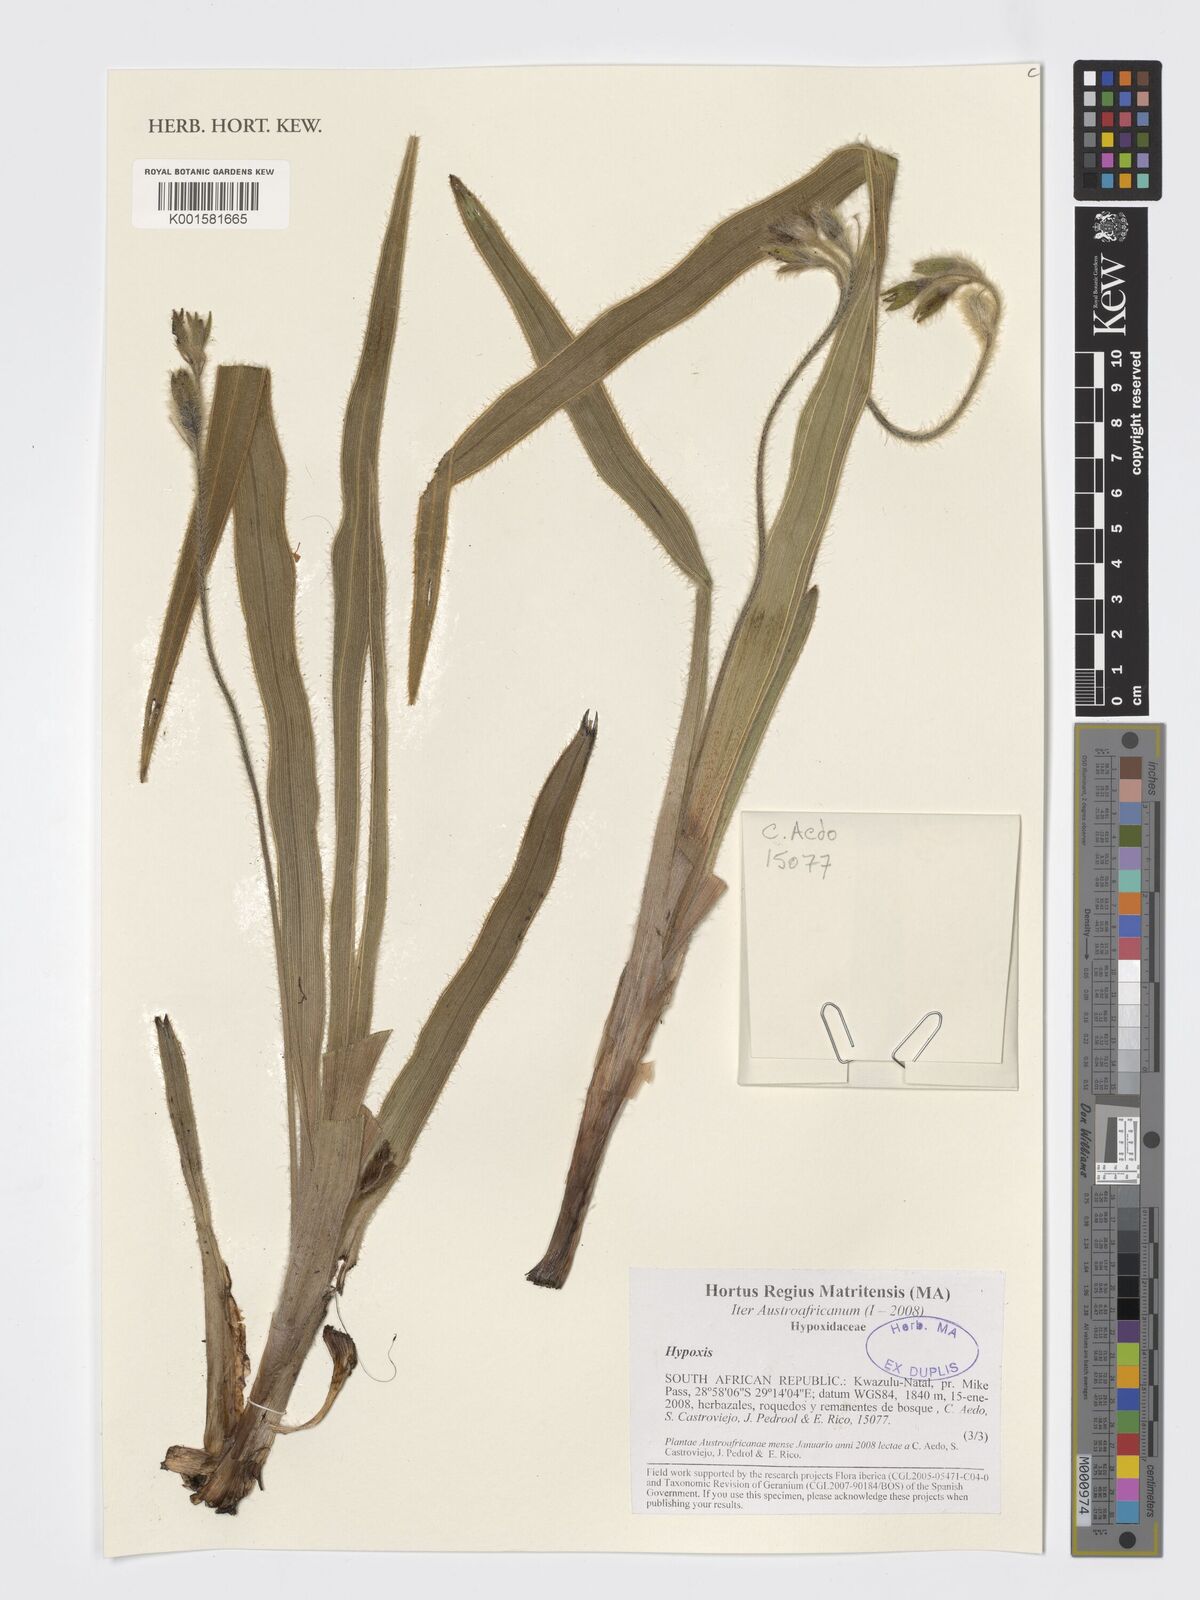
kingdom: Plantae
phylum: Tracheophyta
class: Liliopsida
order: Asparagales
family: Hypoxidaceae
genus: Hypoxis
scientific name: Hypoxis
